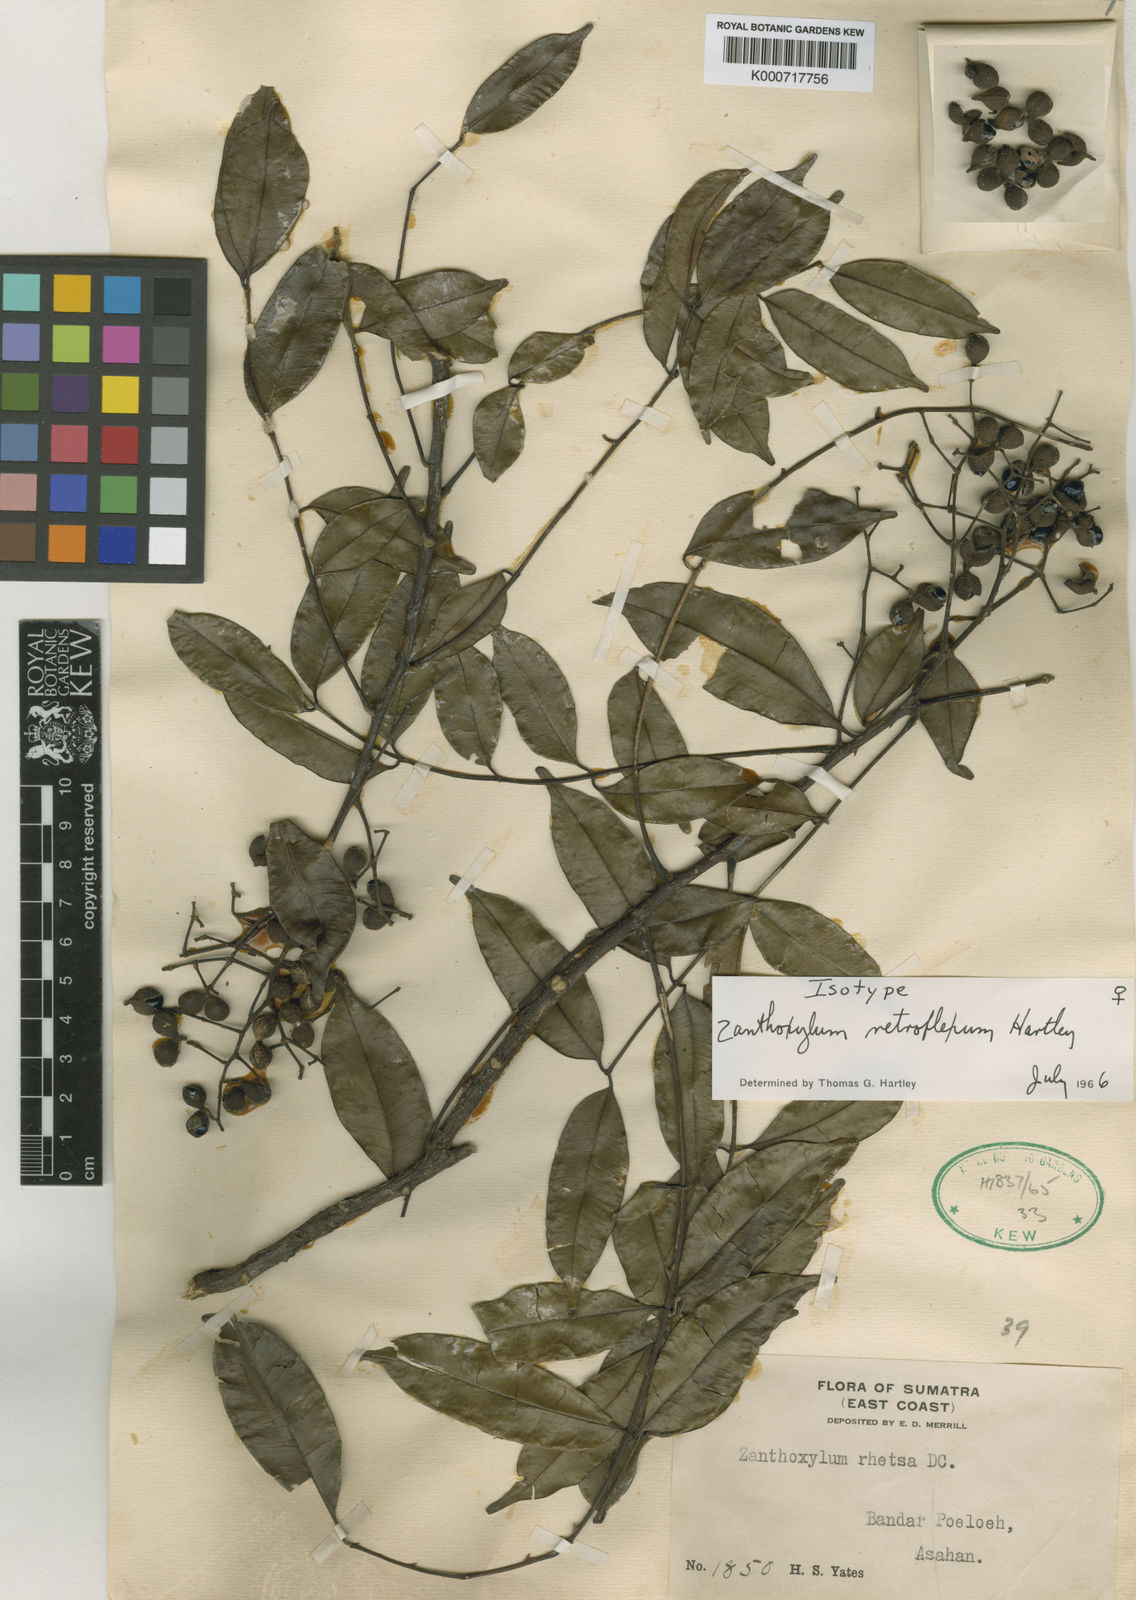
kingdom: Plantae
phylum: Tracheophyta
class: Magnoliopsida
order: Sapindales
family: Rutaceae
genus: Zanthoxylum
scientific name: Zanthoxylum retroflexum
